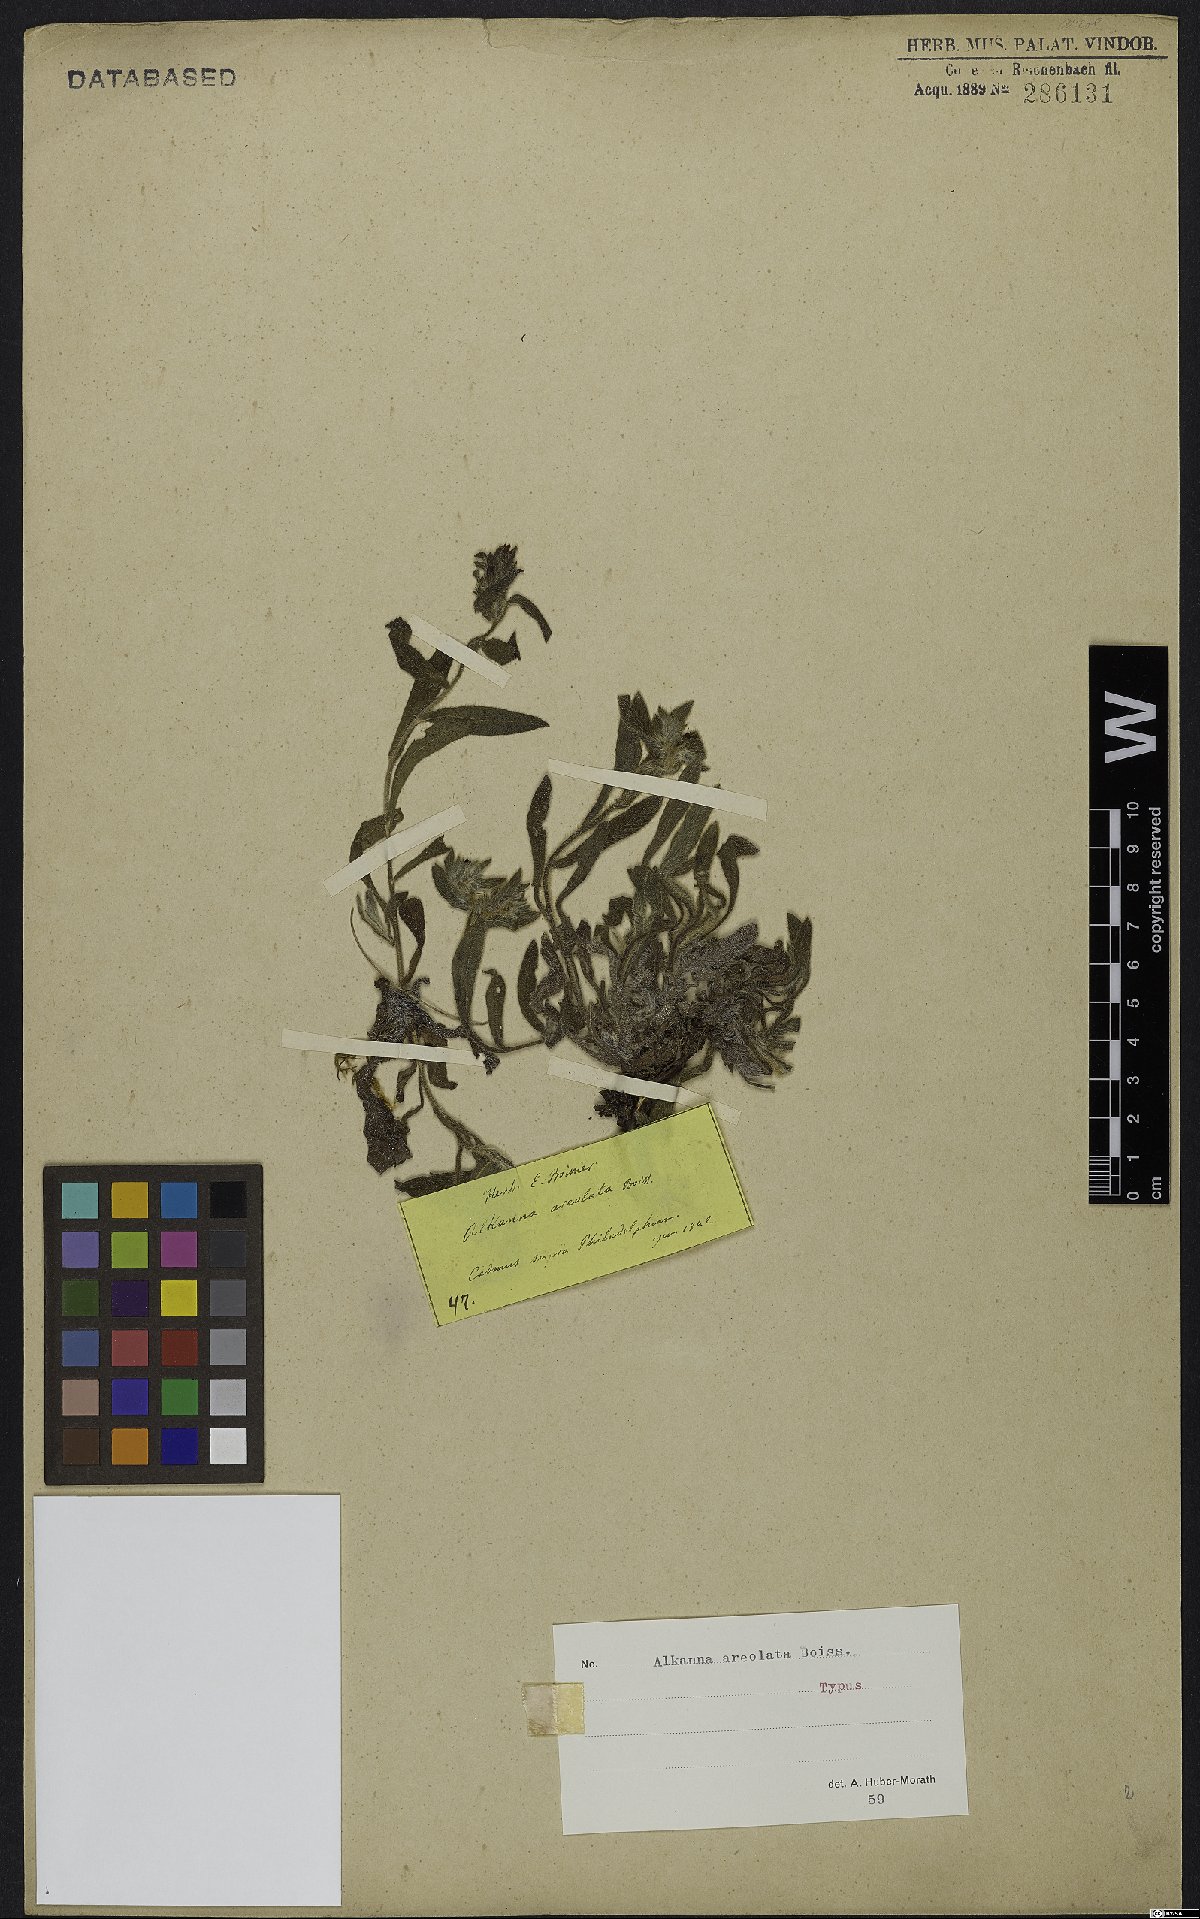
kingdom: Plantae
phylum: Tracheophyta
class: Magnoliopsida
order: Boraginales
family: Boraginaceae
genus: Alkanna
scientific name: Alkanna areolata
